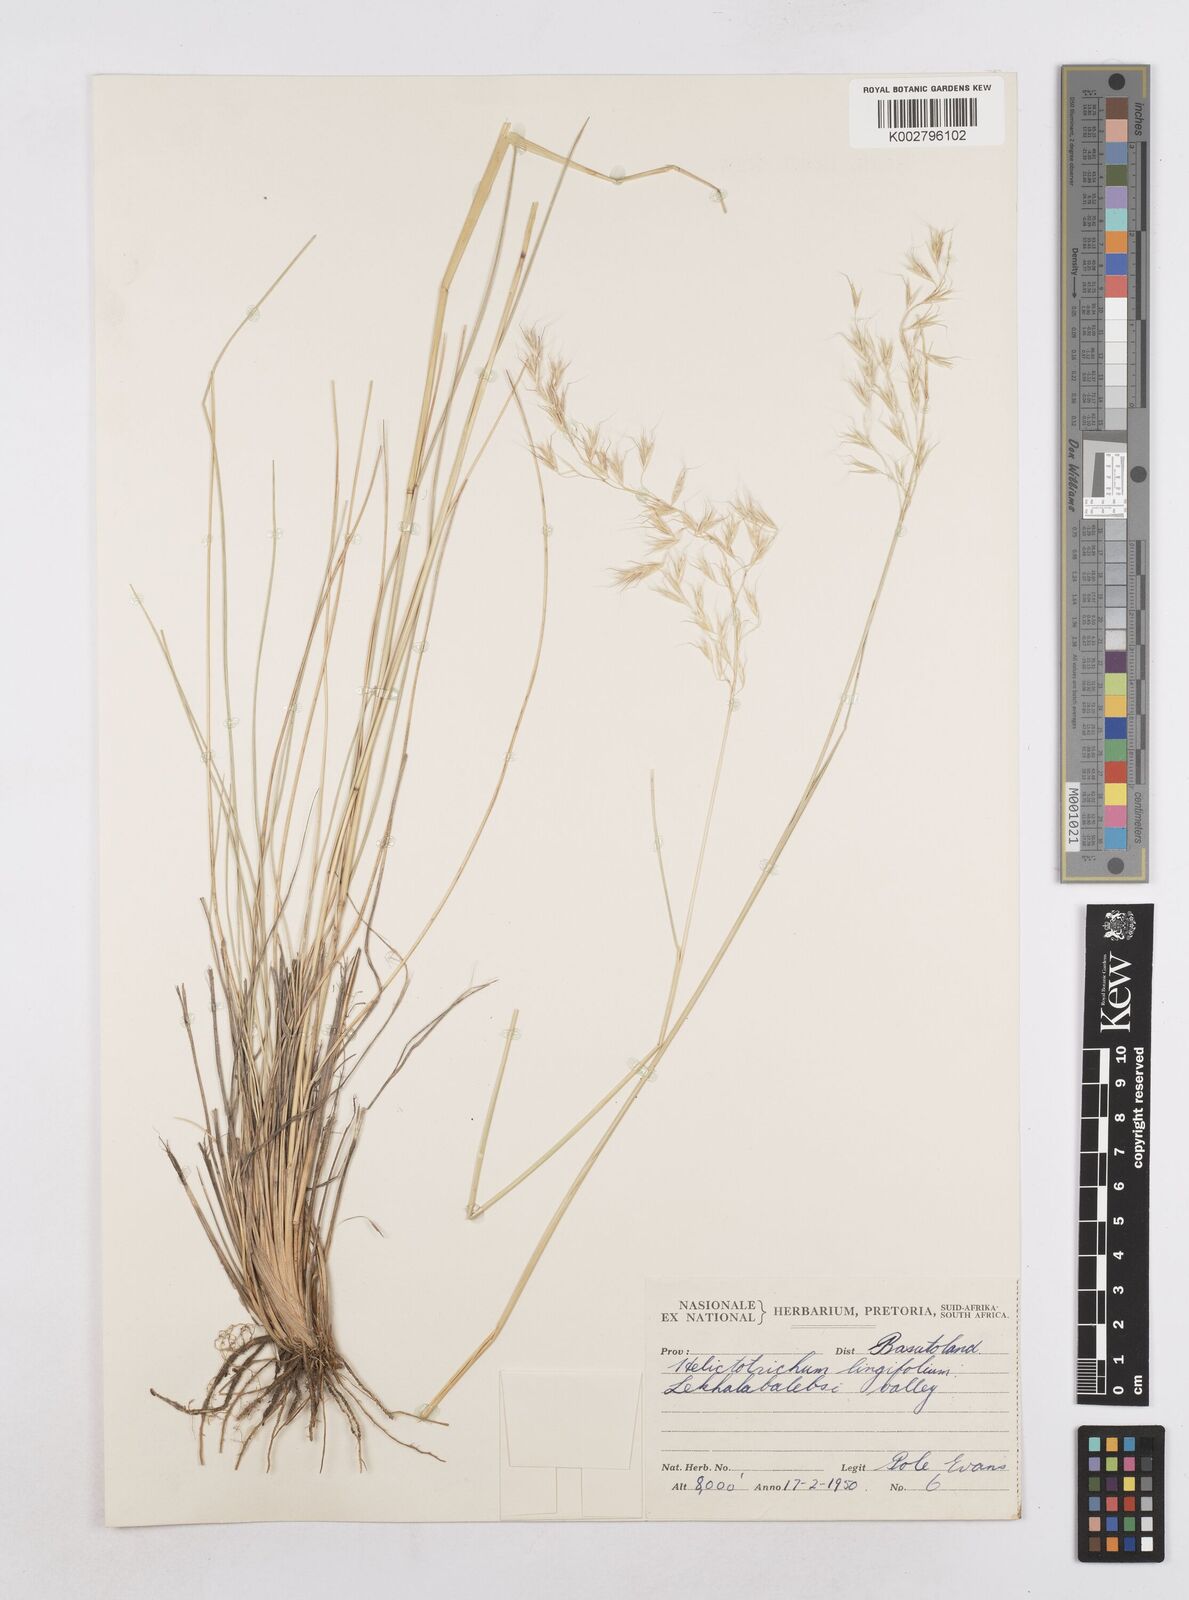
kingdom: Plantae
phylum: Tracheophyta
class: Liliopsida
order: Poales
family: Poaceae
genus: Trisetopsis
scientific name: Trisetopsis longifolia
